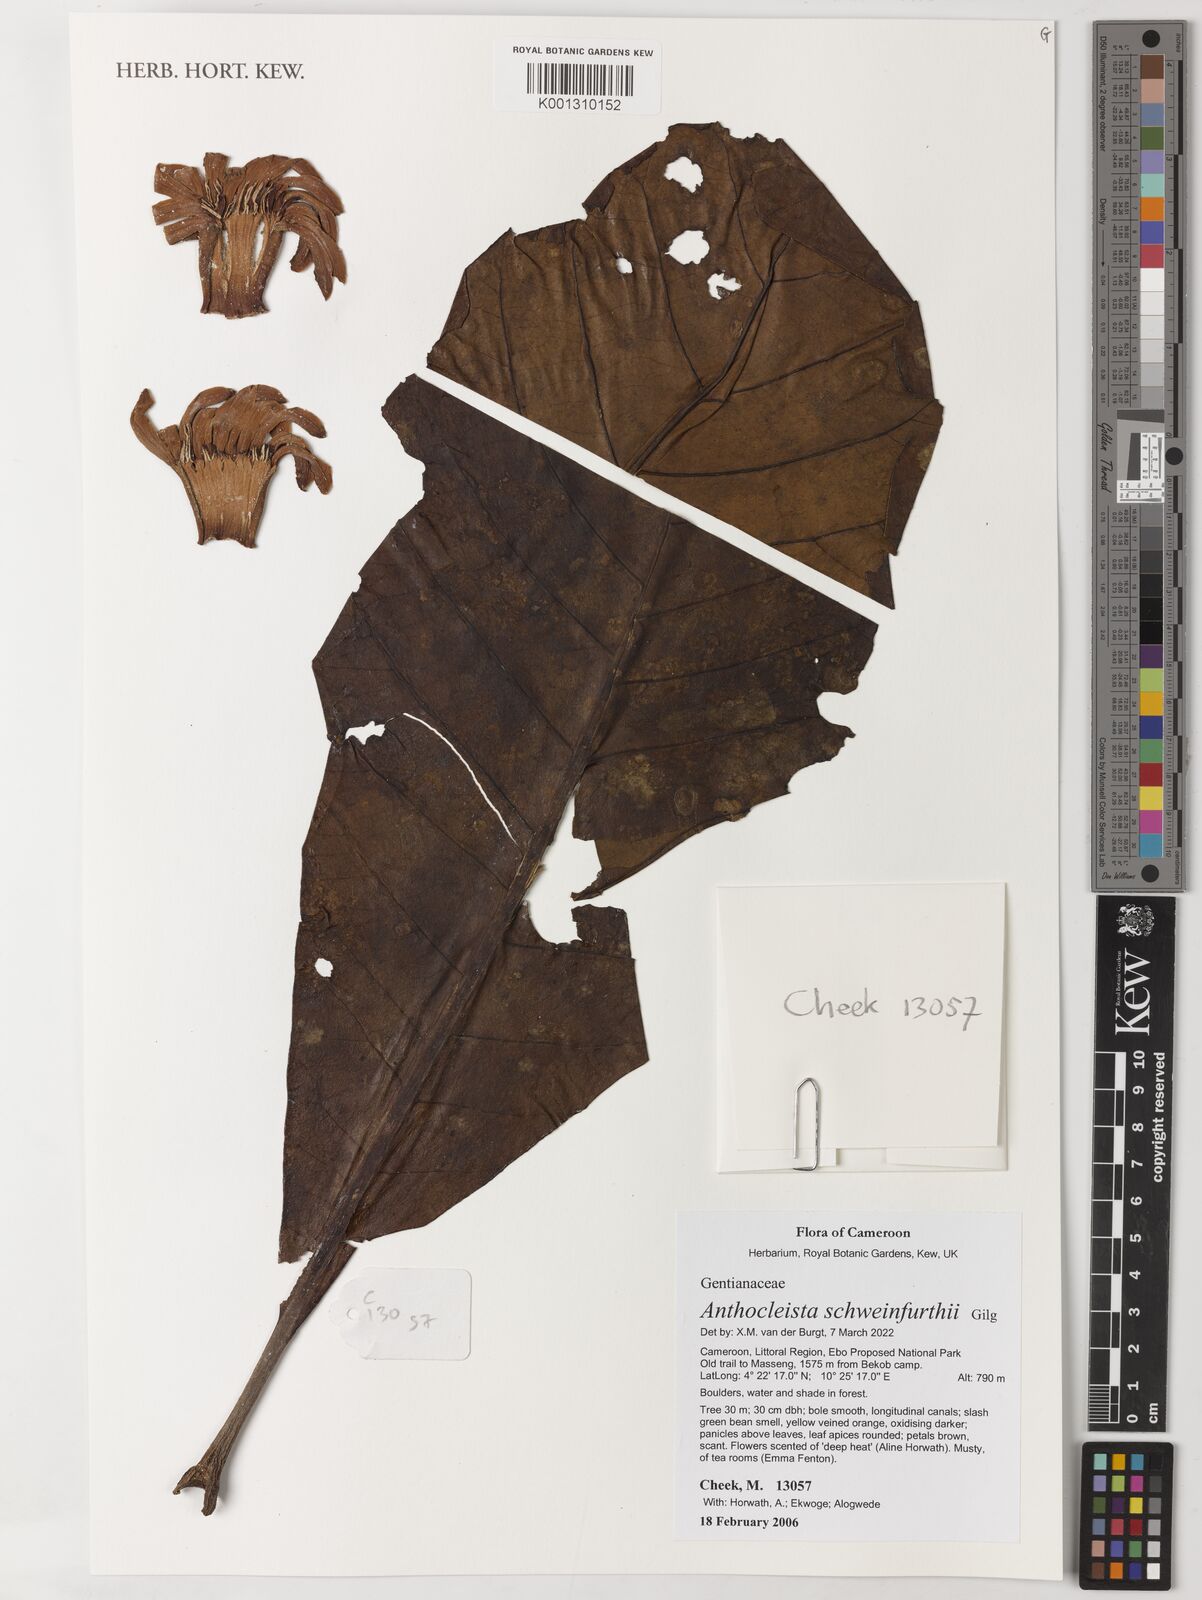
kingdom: Plantae
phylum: Tracheophyta
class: Magnoliopsida
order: Gentianales
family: Gentianaceae
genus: Anthocleista
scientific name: Anthocleista schweinfurthii
